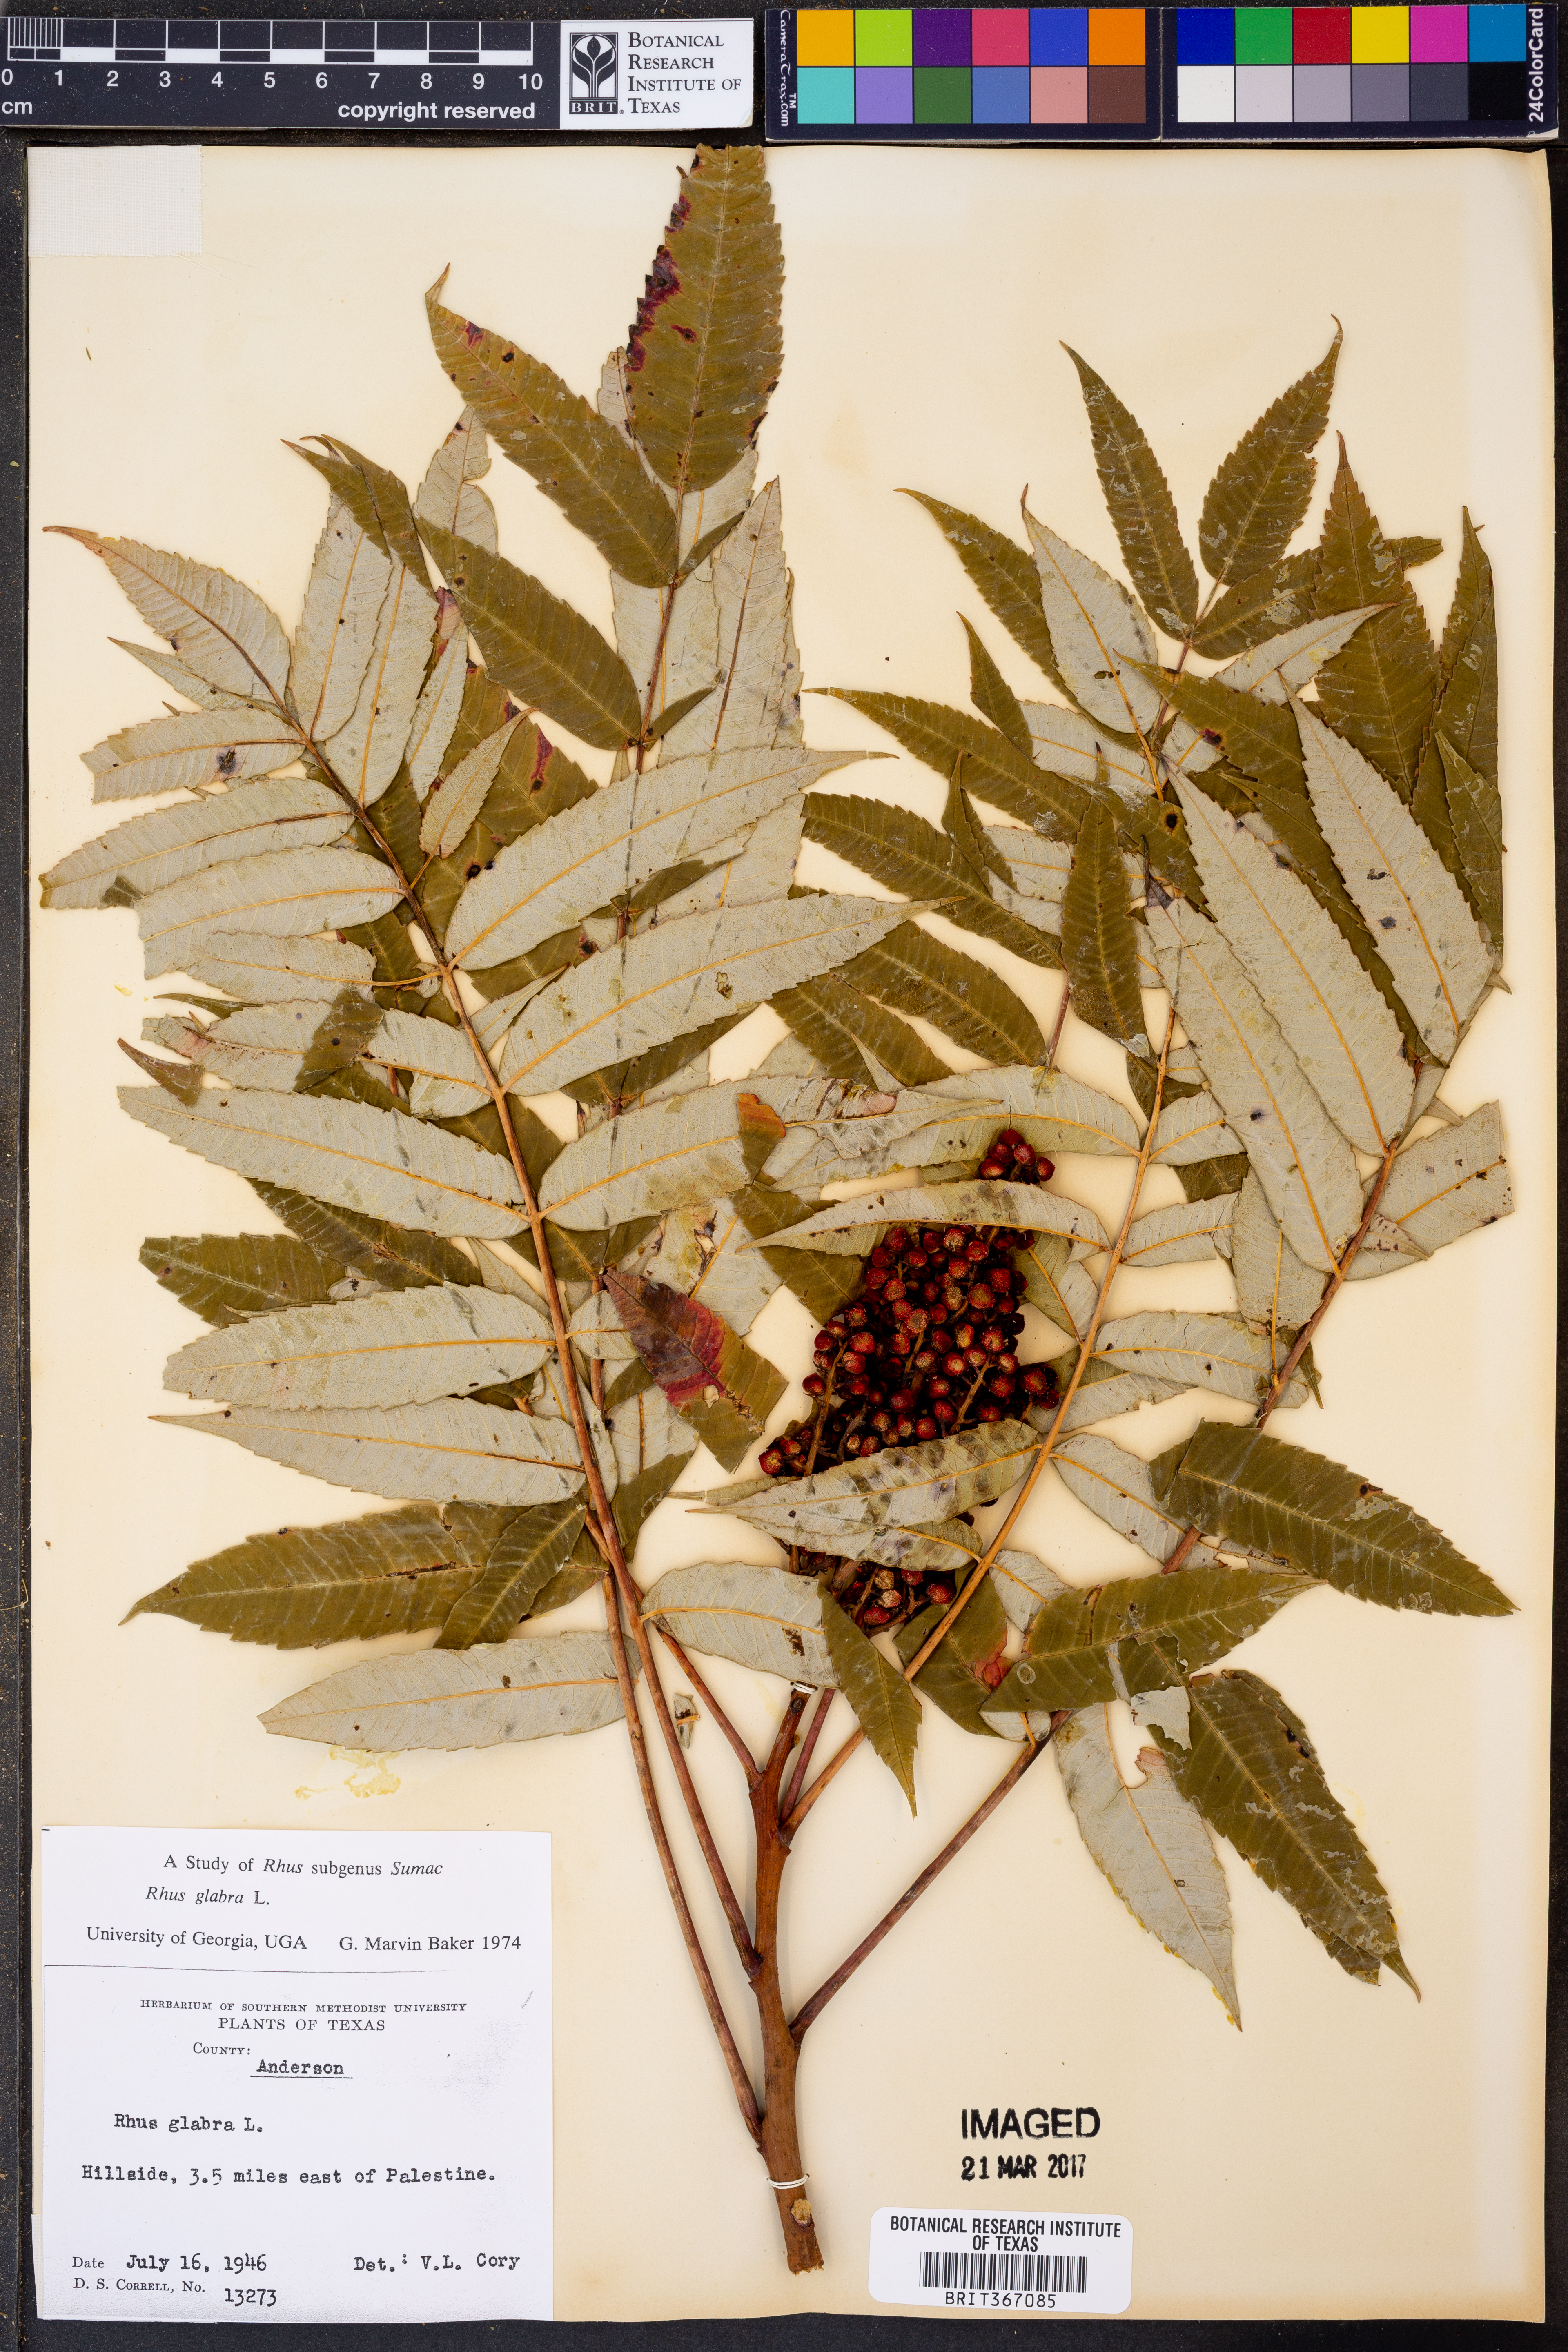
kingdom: Plantae
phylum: Tracheophyta
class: Magnoliopsida
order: Sapindales
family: Anacardiaceae
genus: Rhus
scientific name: Rhus glabra
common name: Scarlet sumac
